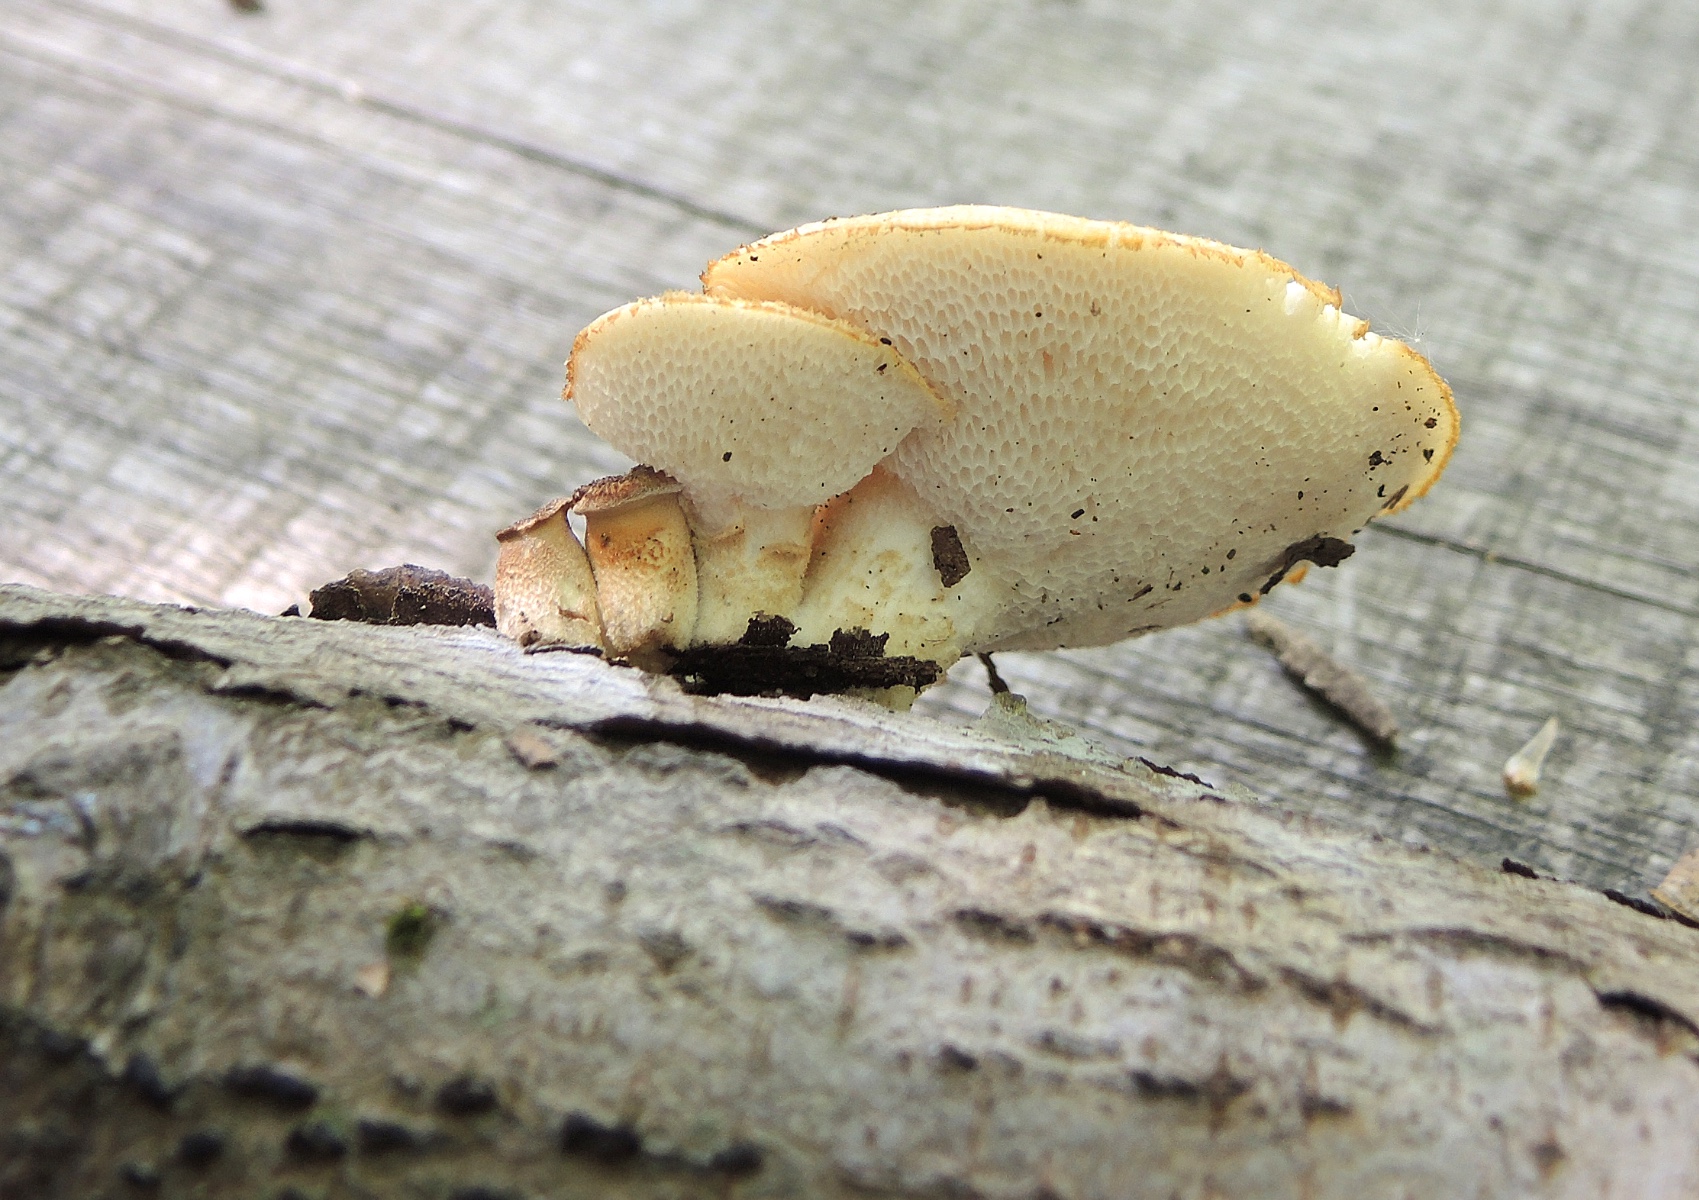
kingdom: Fungi
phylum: Basidiomycota
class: Agaricomycetes
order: Polyporales
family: Polyporaceae
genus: Polyporus
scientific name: Polyporus tuberaster
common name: knoldet stilkporesvamp
